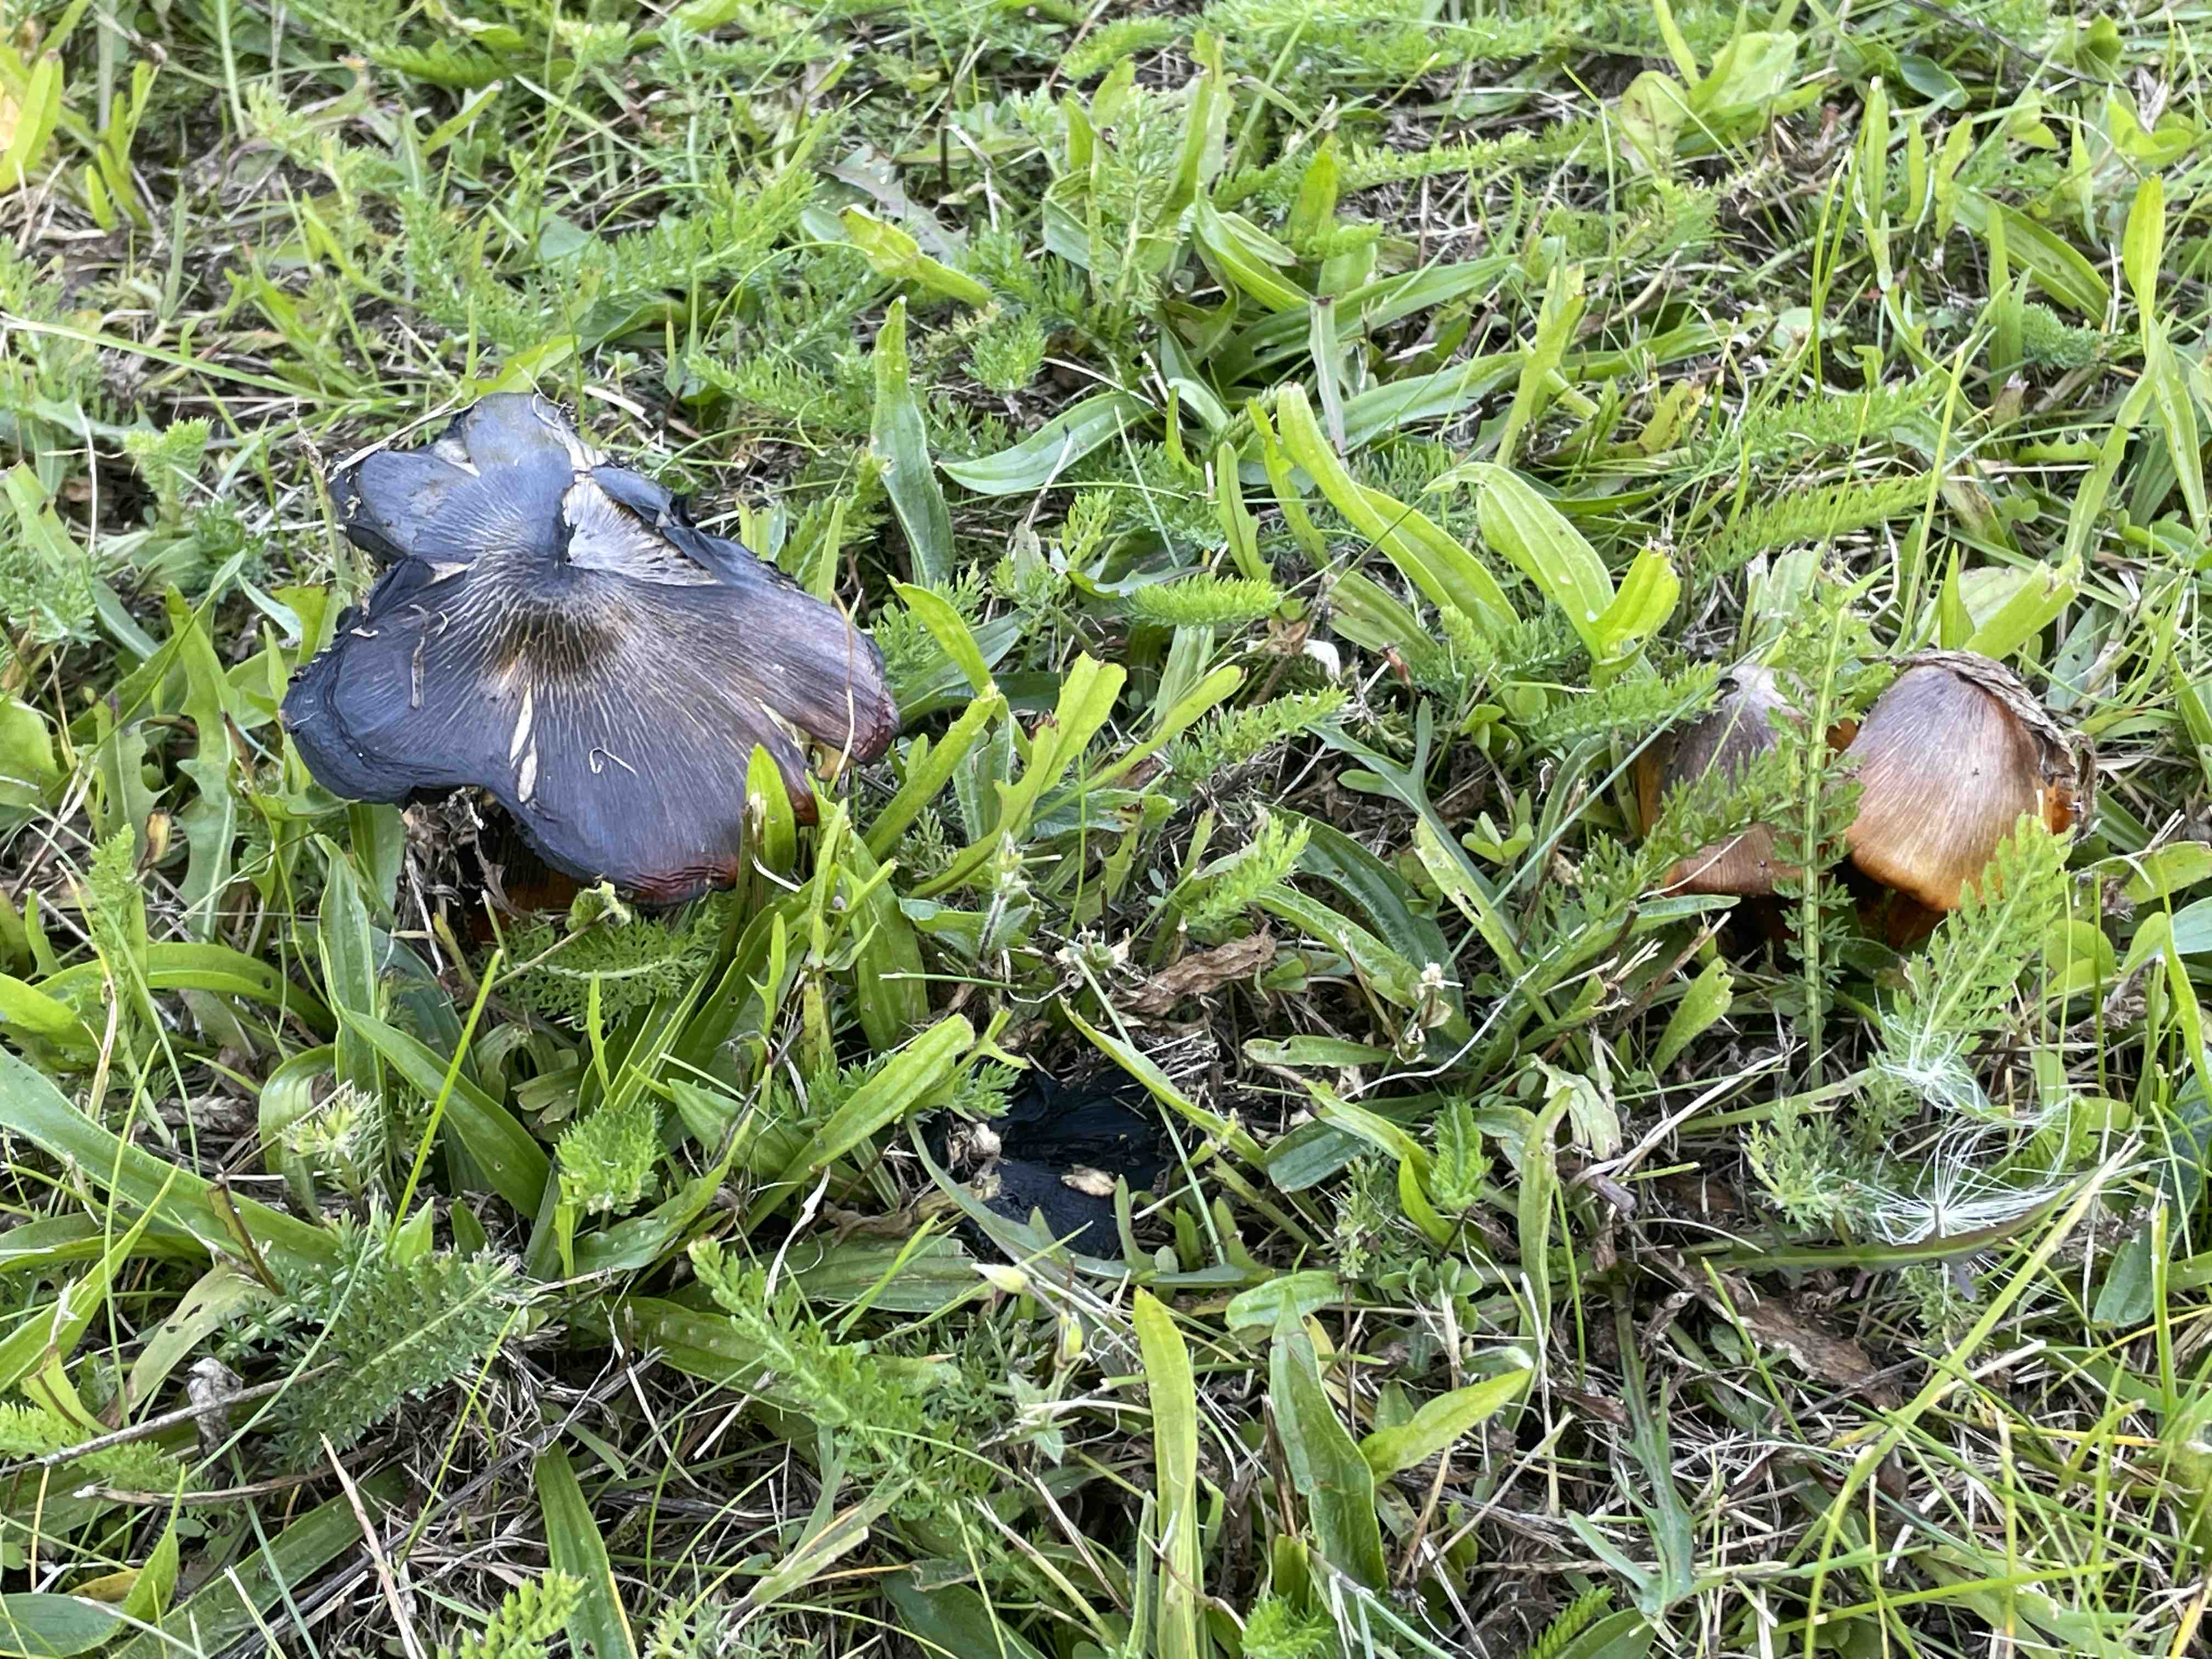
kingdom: Fungi
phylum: Basidiomycota
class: Agaricomycetes
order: Agaricales
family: Hygrophoraceae
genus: Hygrocybe
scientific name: Hygrocybe conica
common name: kegle-vokshat
